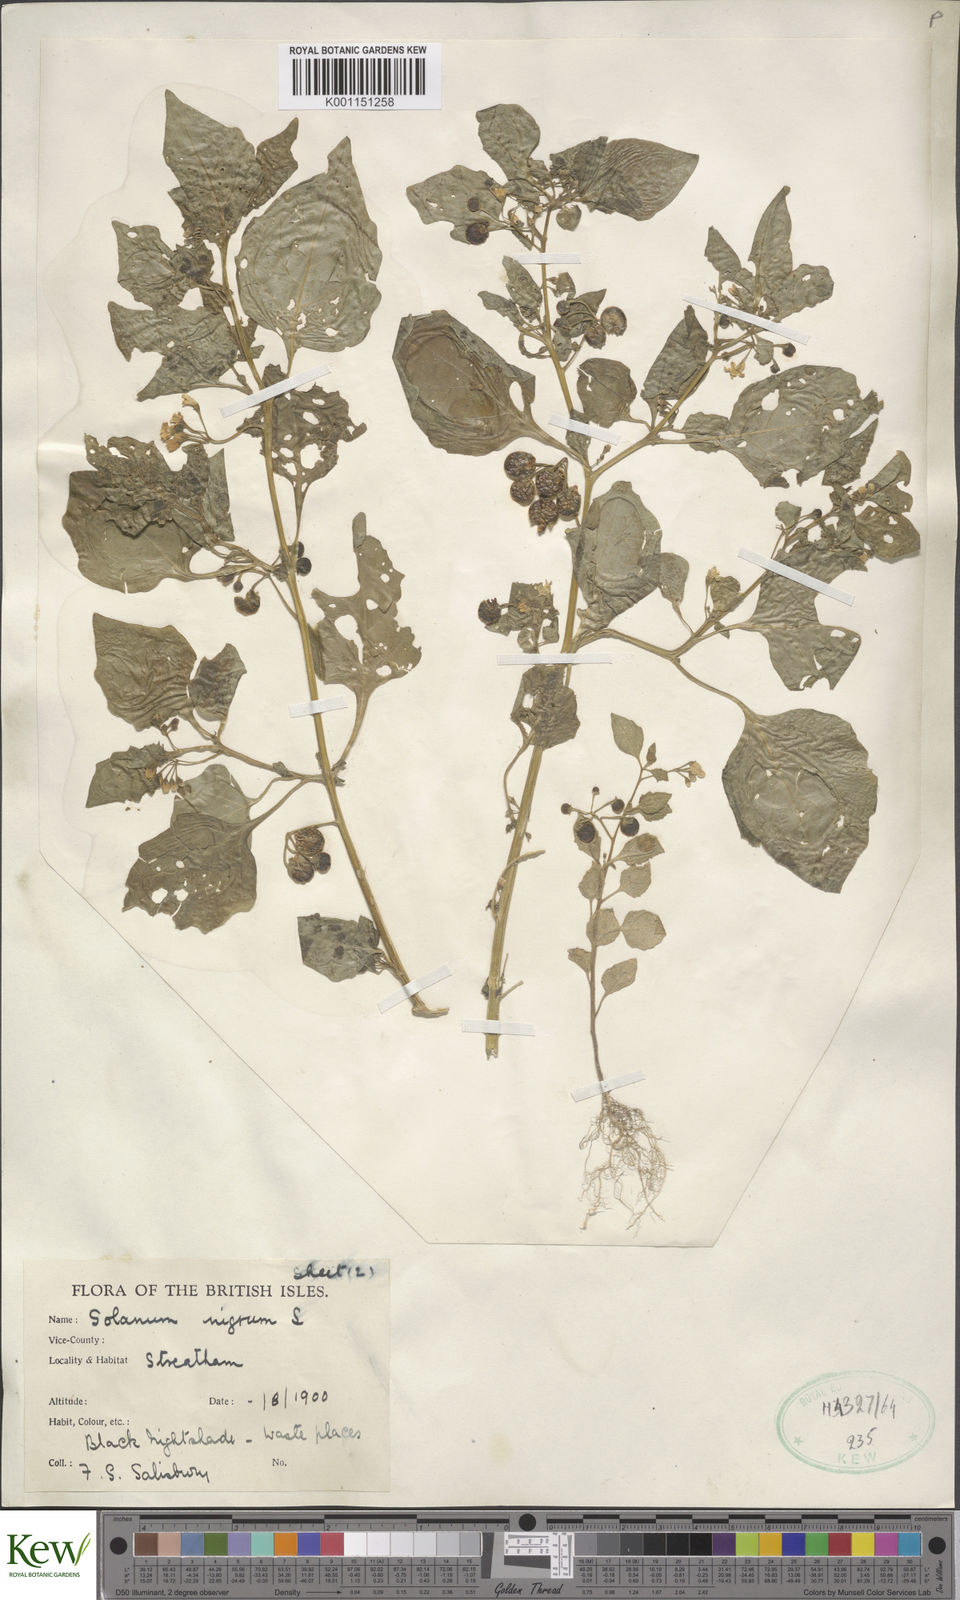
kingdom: Plantae
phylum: Tracheophyta
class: Magnoliopsida
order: Solanales
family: Solanaceae
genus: Solanum
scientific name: Solanum nigrum
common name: Black nightshade
